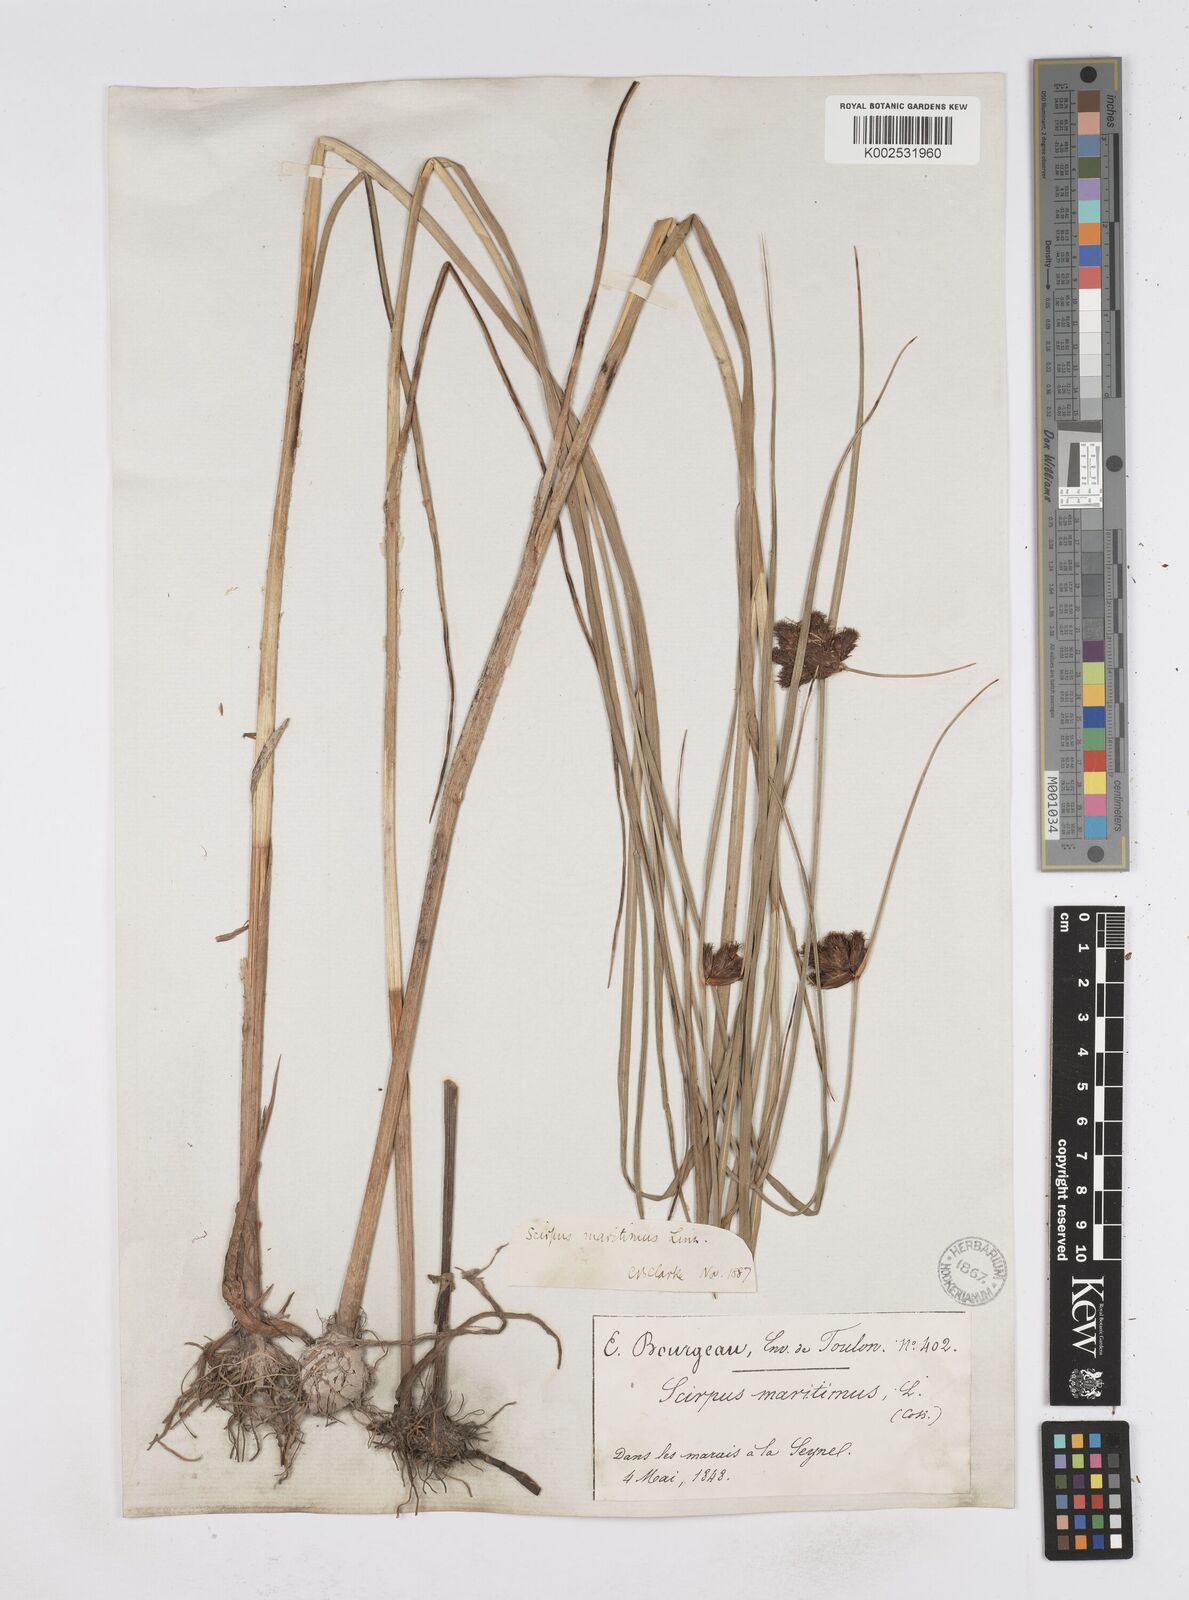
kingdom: Plantae
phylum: Tracheophyta
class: Liliopsida
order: Poales
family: Cyperaceae
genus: Bolboschoenus
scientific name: Bolboschoenus maritimus
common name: Sea club-rush
